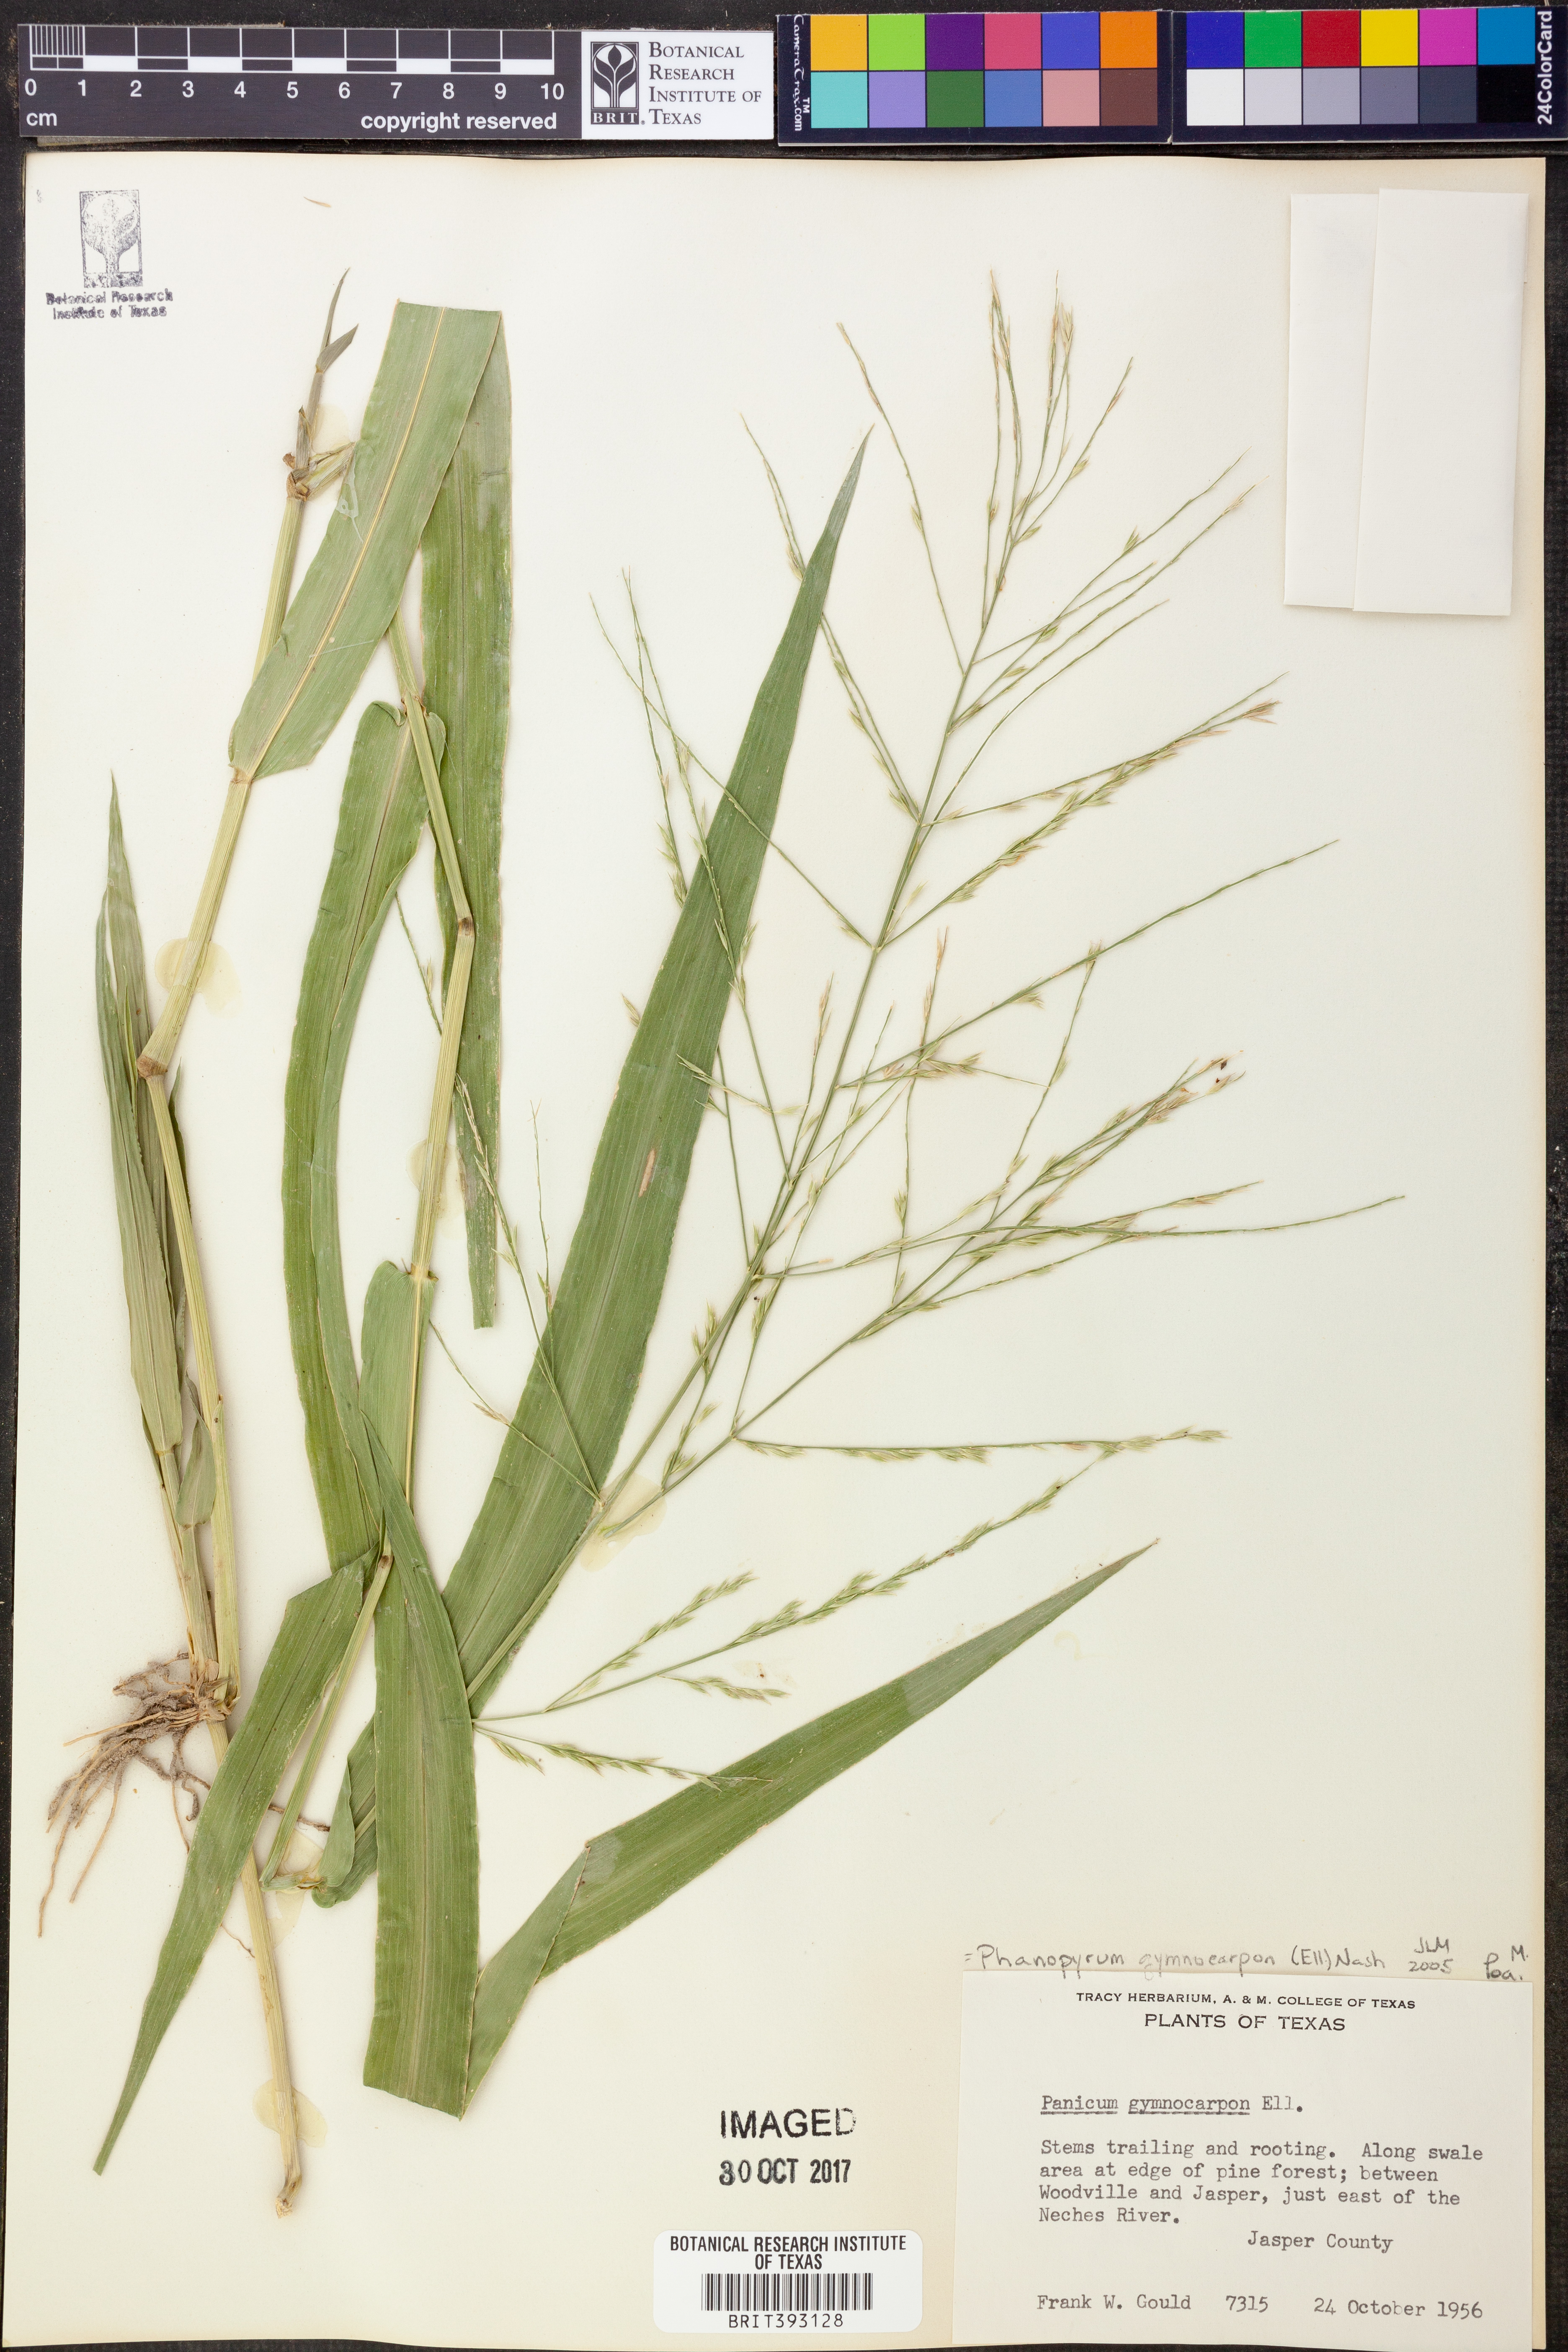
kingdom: Plantae
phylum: Tracheophyta
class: Liliopsida
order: Poales
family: Poaceae
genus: Panicum
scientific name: Panicum gymnocarpon
